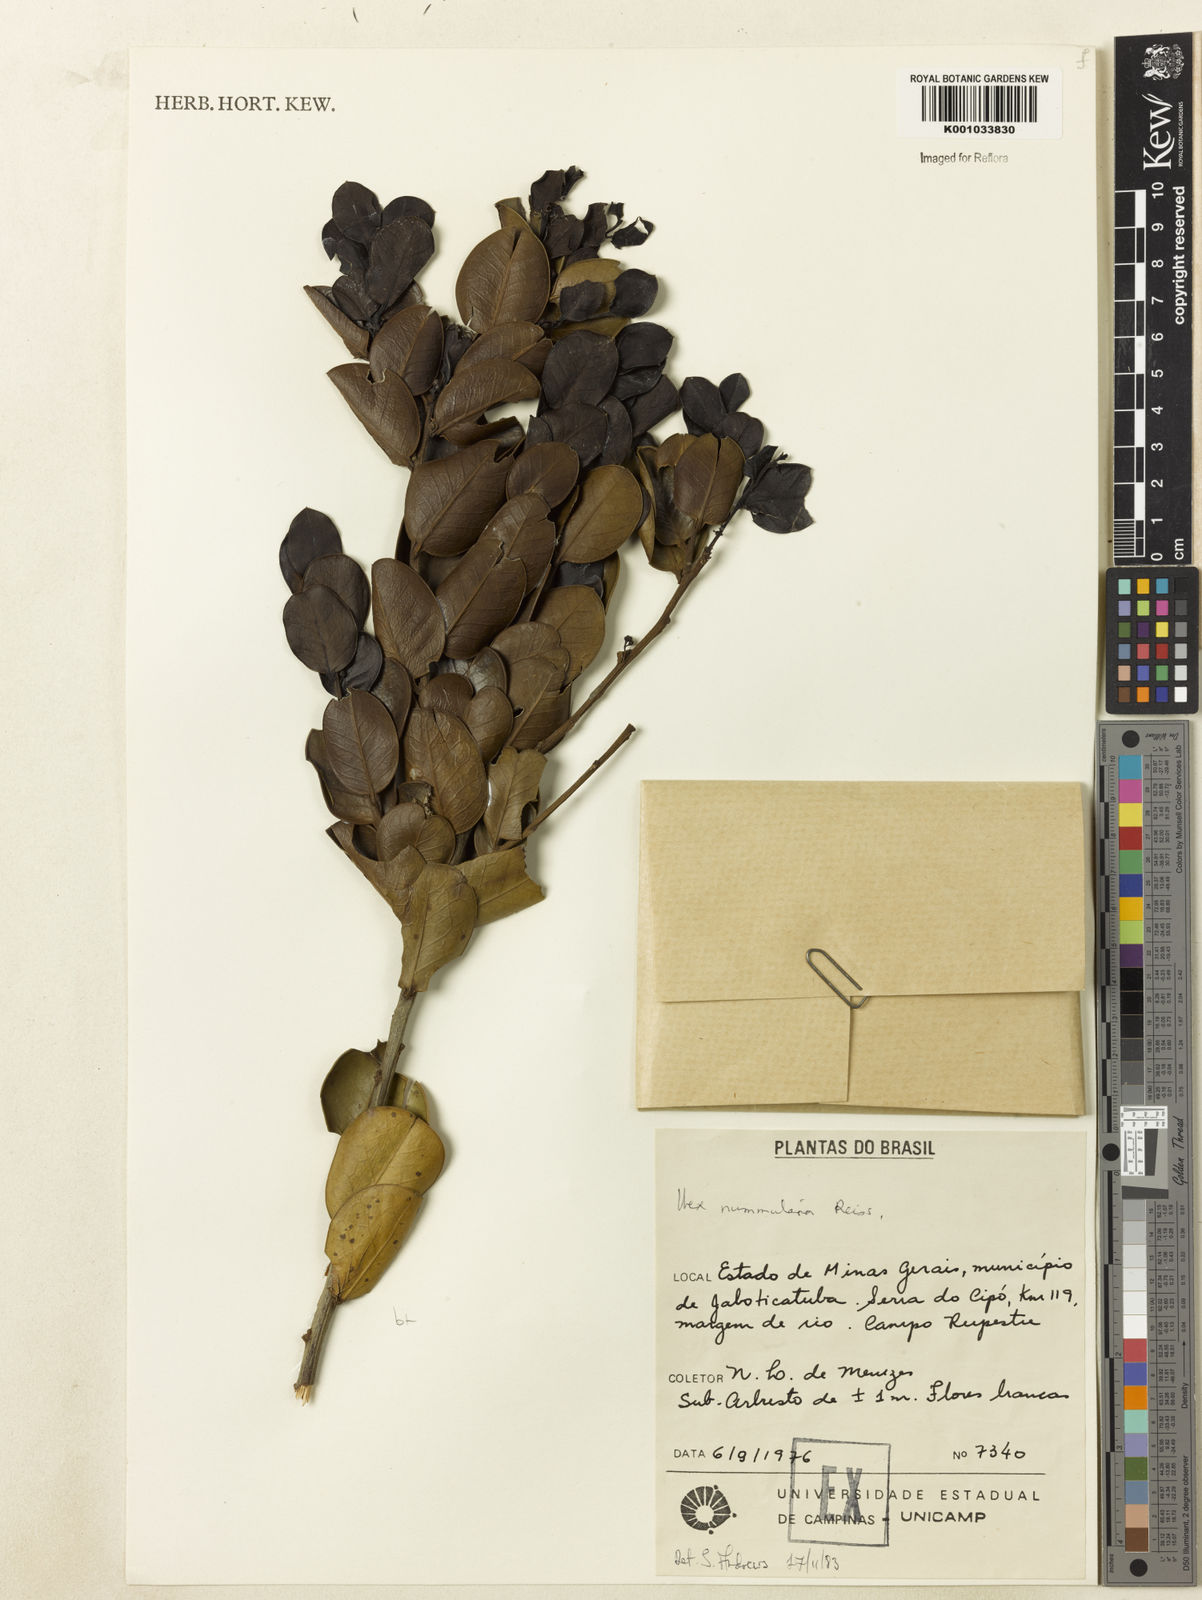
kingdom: Plantae
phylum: Tracheophyta
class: Magnoliopsida
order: Aquifoliales
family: Aquifoliaceae
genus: Ilex
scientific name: Ilex nummularia
